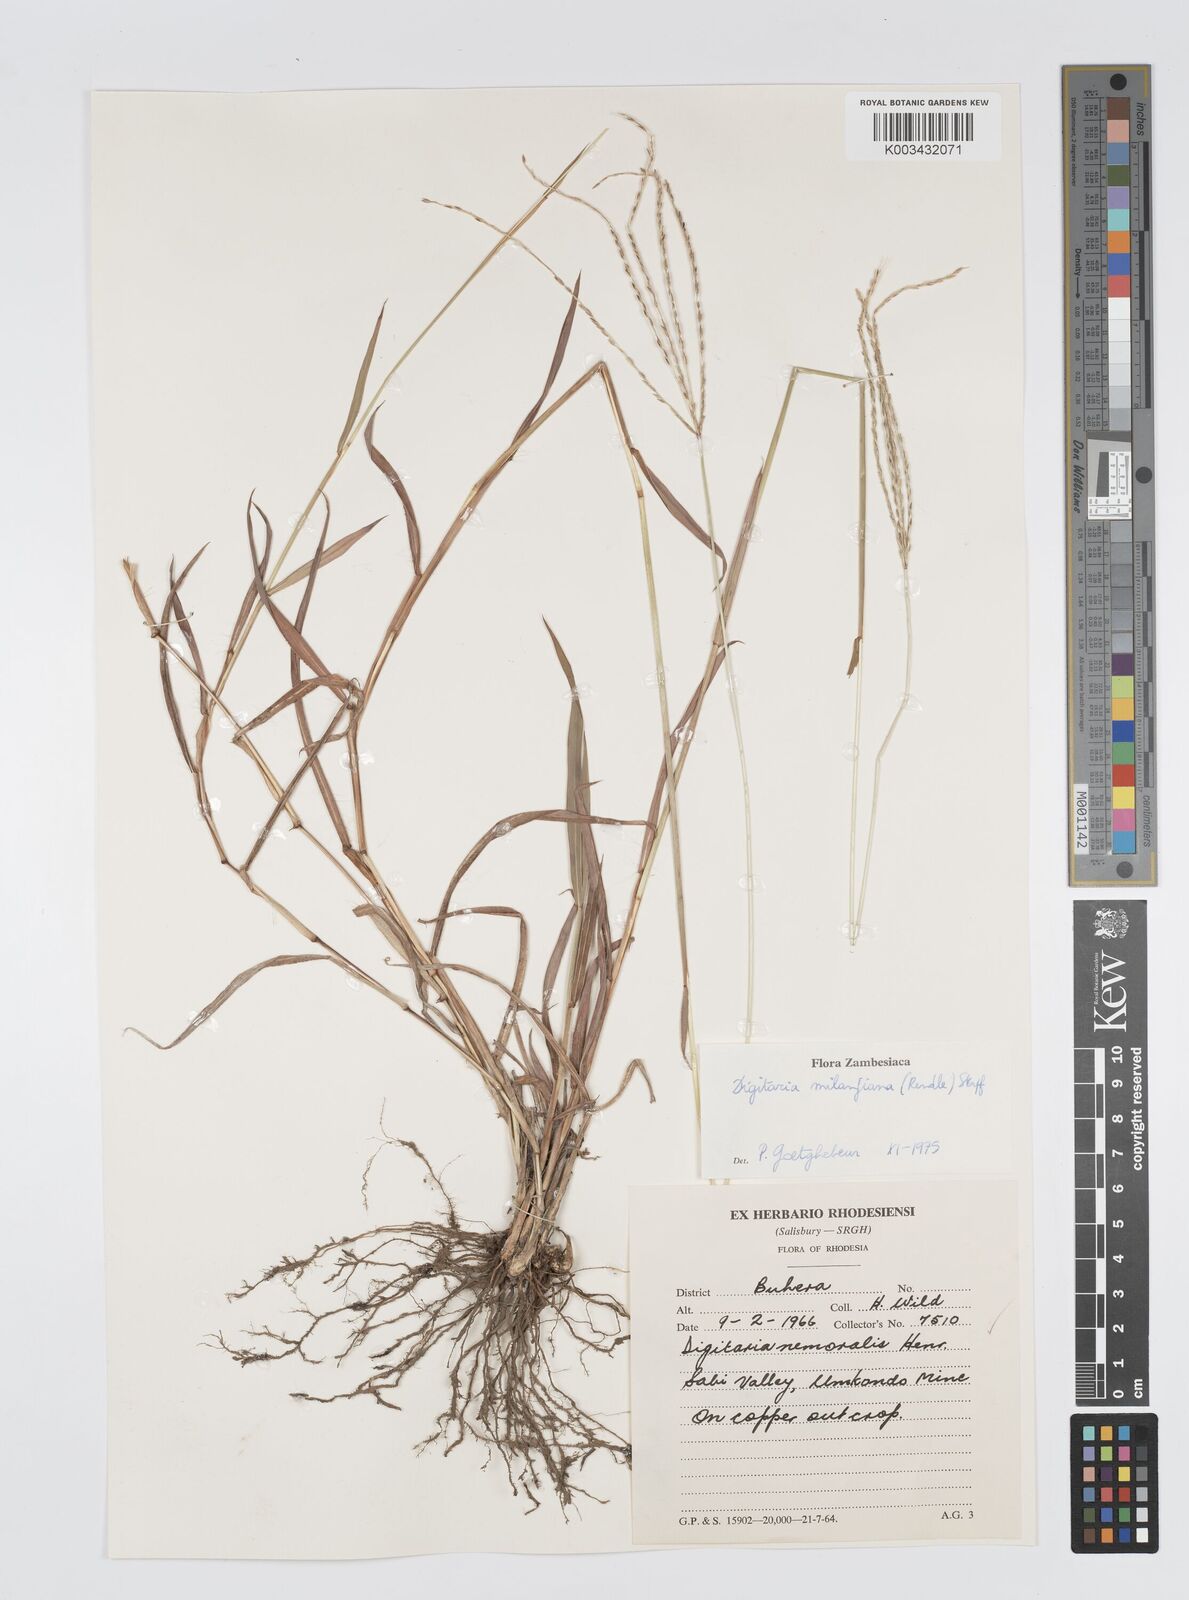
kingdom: Plantae
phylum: Tracheophyta
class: Liliopsida
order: Poales
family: Poaceae
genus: Digitaria
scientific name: Digitaria milanjiana
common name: Madagascar crabgrass
